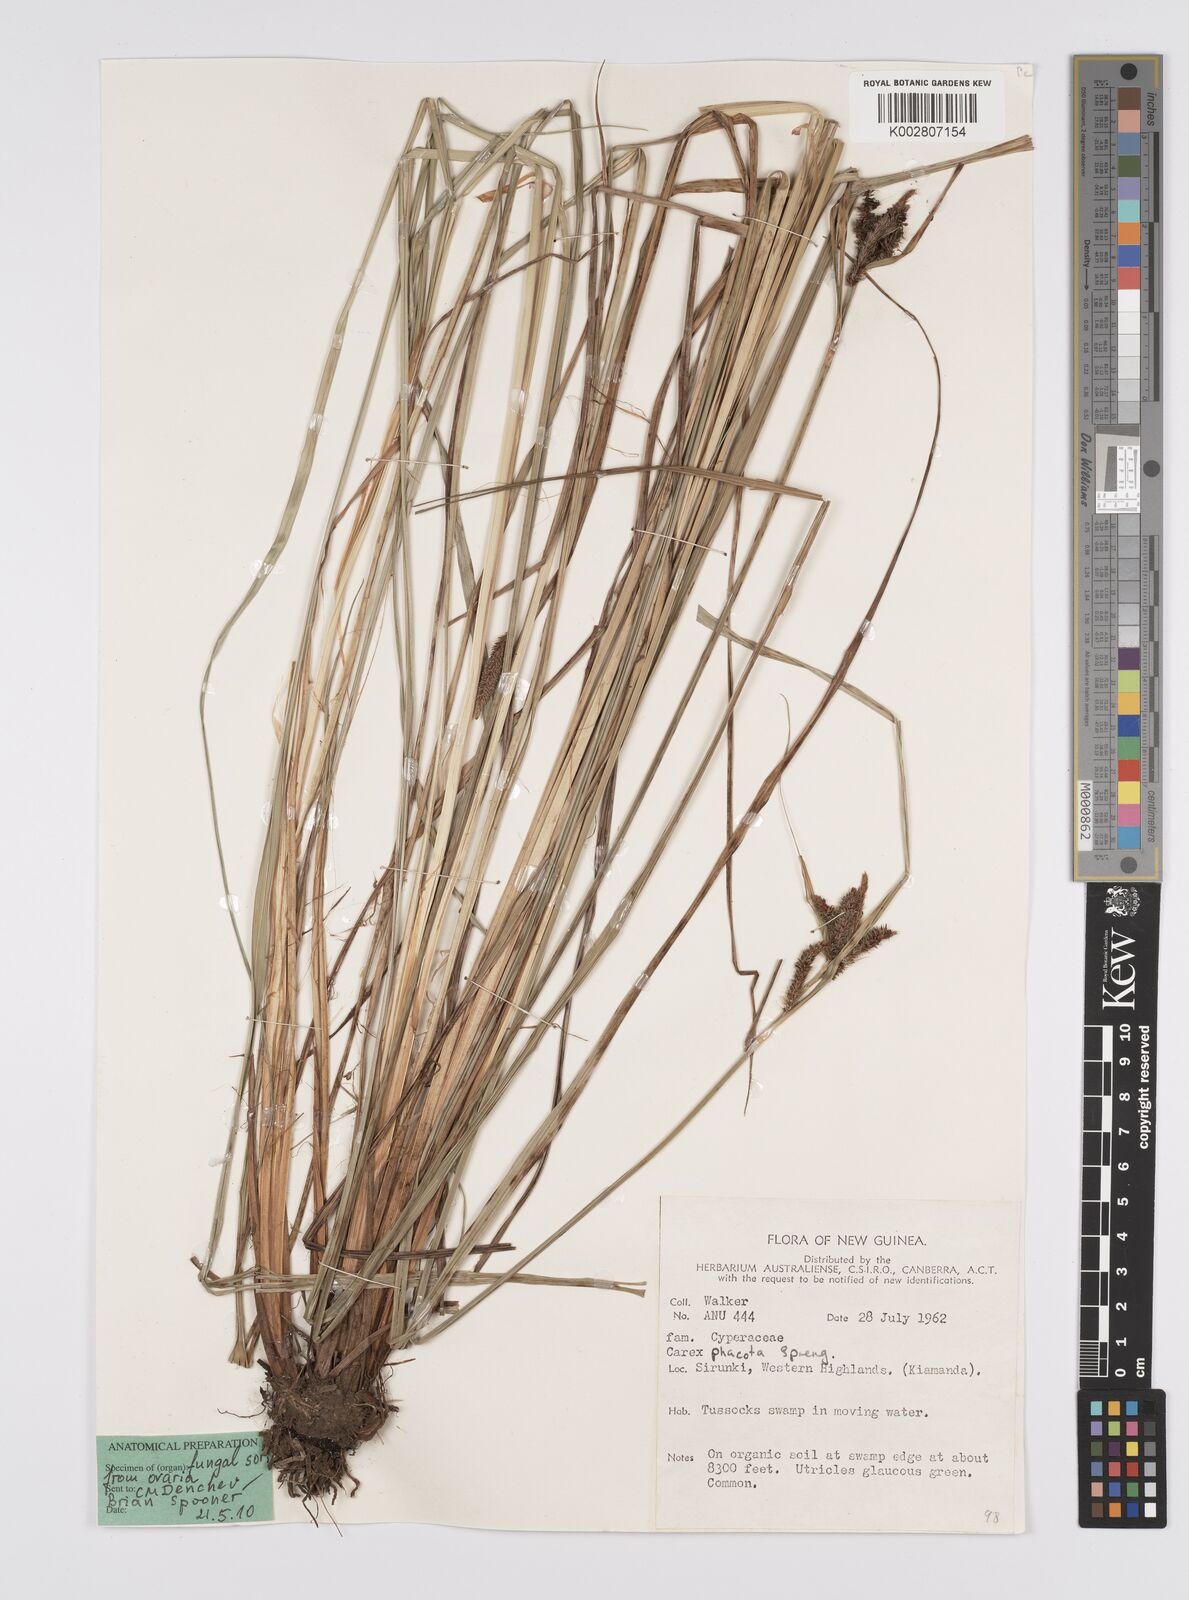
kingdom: Plantae
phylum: Tracheophyta
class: Liliopsida
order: Poales
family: Cyperaceae
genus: Carex
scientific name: Carex phacota
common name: Lakeshore sedge
